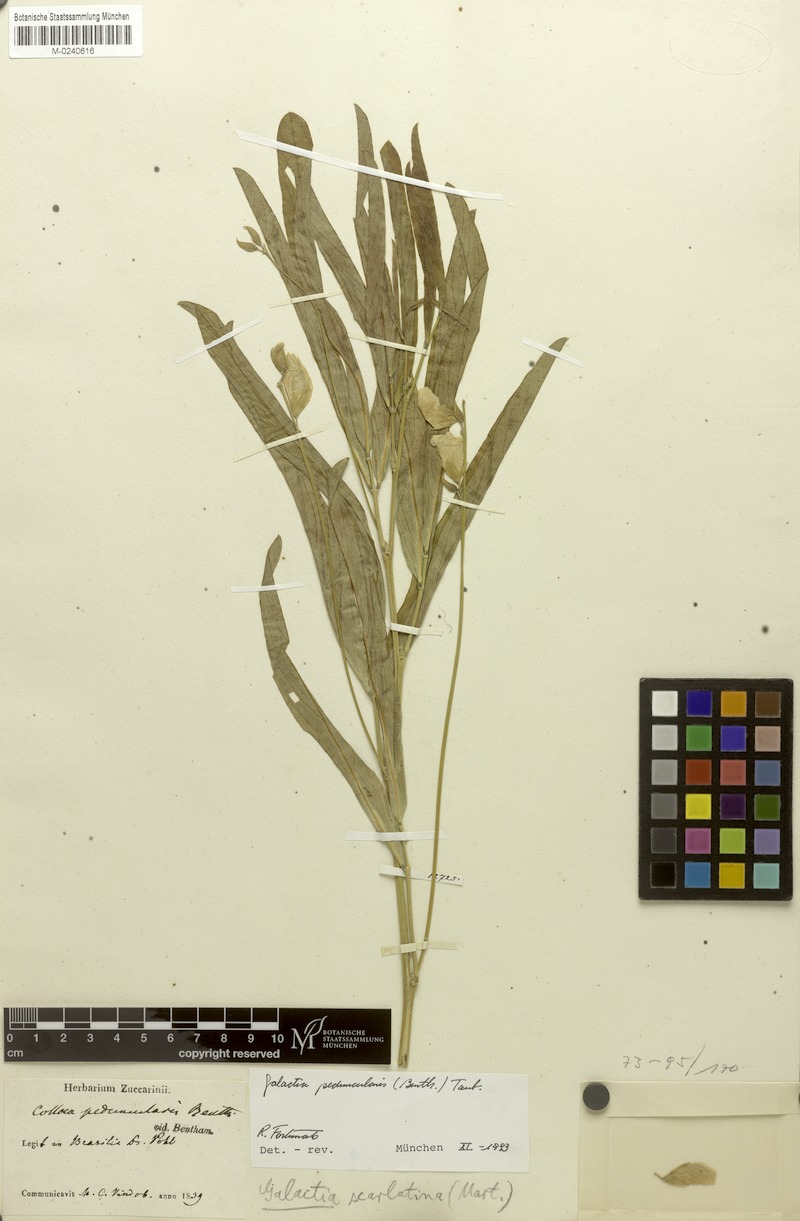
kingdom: Plantae
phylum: Tracheophyta
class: Magnoliopsida
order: Fabales
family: Fabaceae
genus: Cerradicola
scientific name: Cerradicola peduncularis
